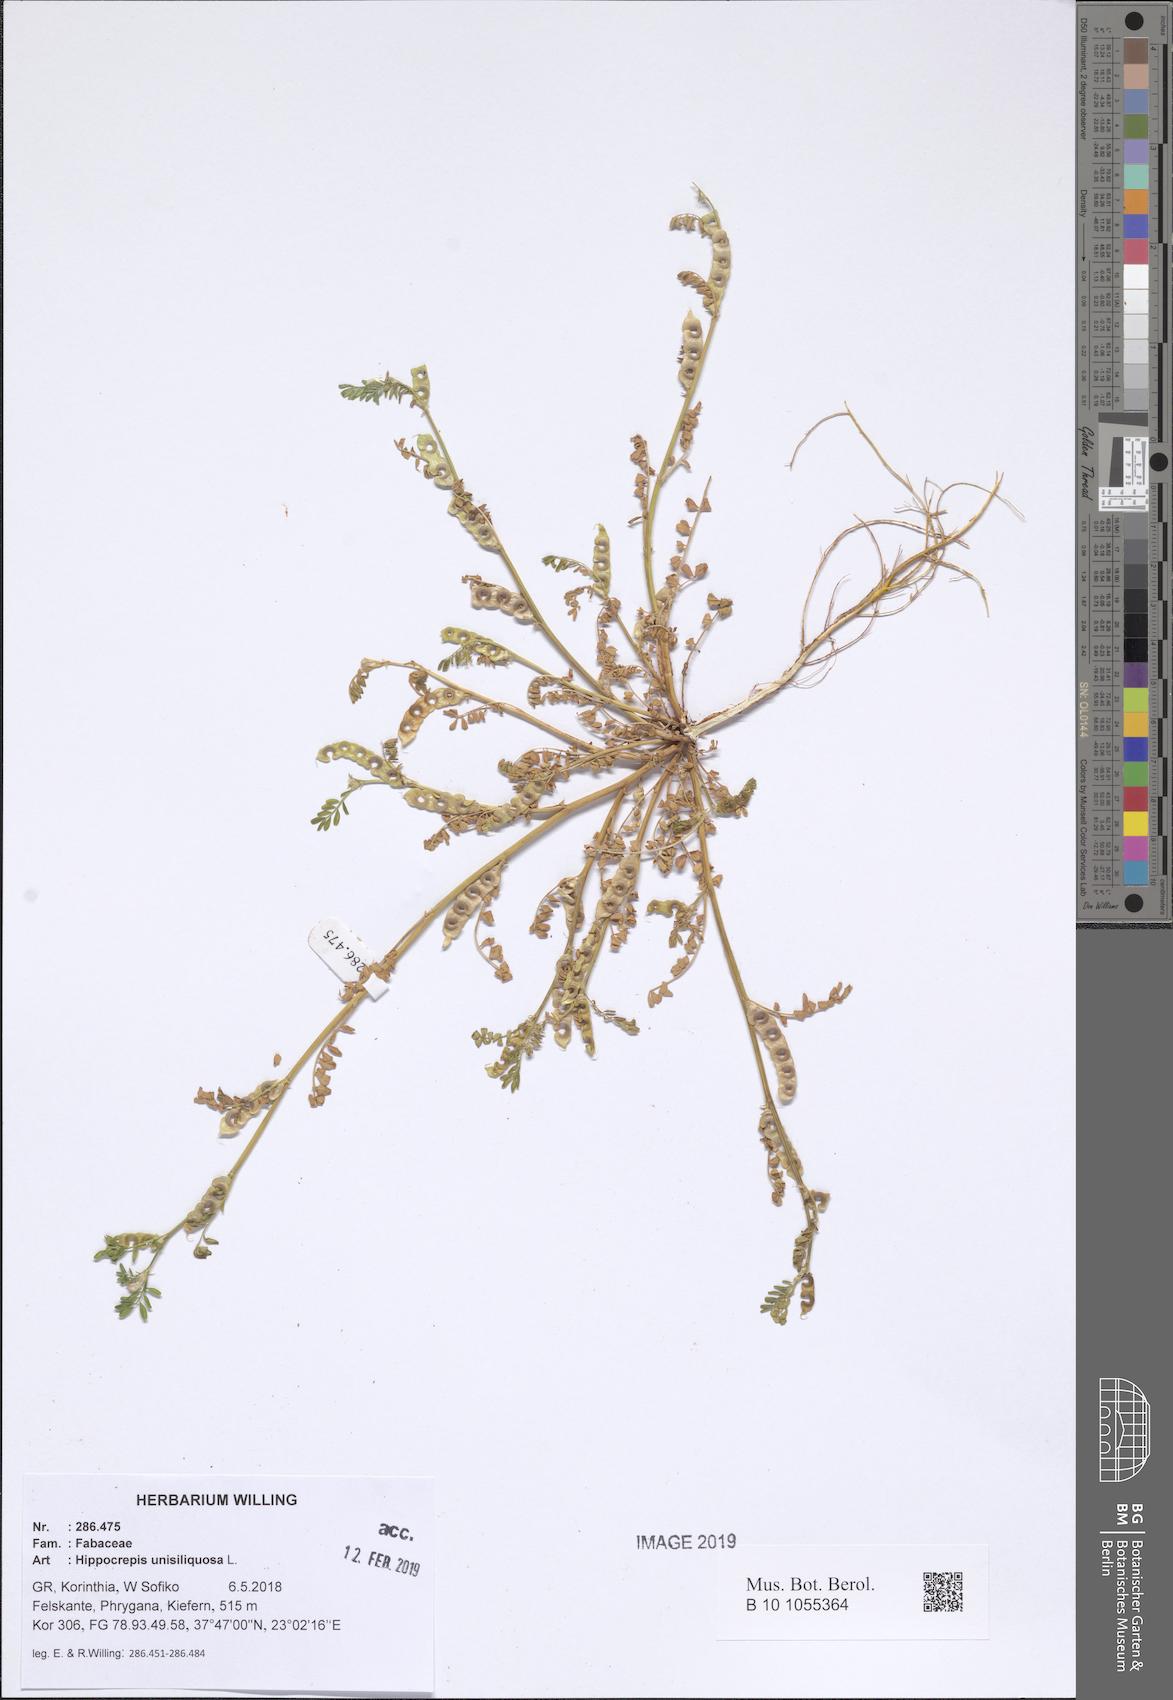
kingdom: Plantae
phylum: Tracheophyta
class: Magnoliopsida
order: Fabales
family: Fabaceae
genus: Hippocrepis
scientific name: Hippocrepis unisiliquosa
